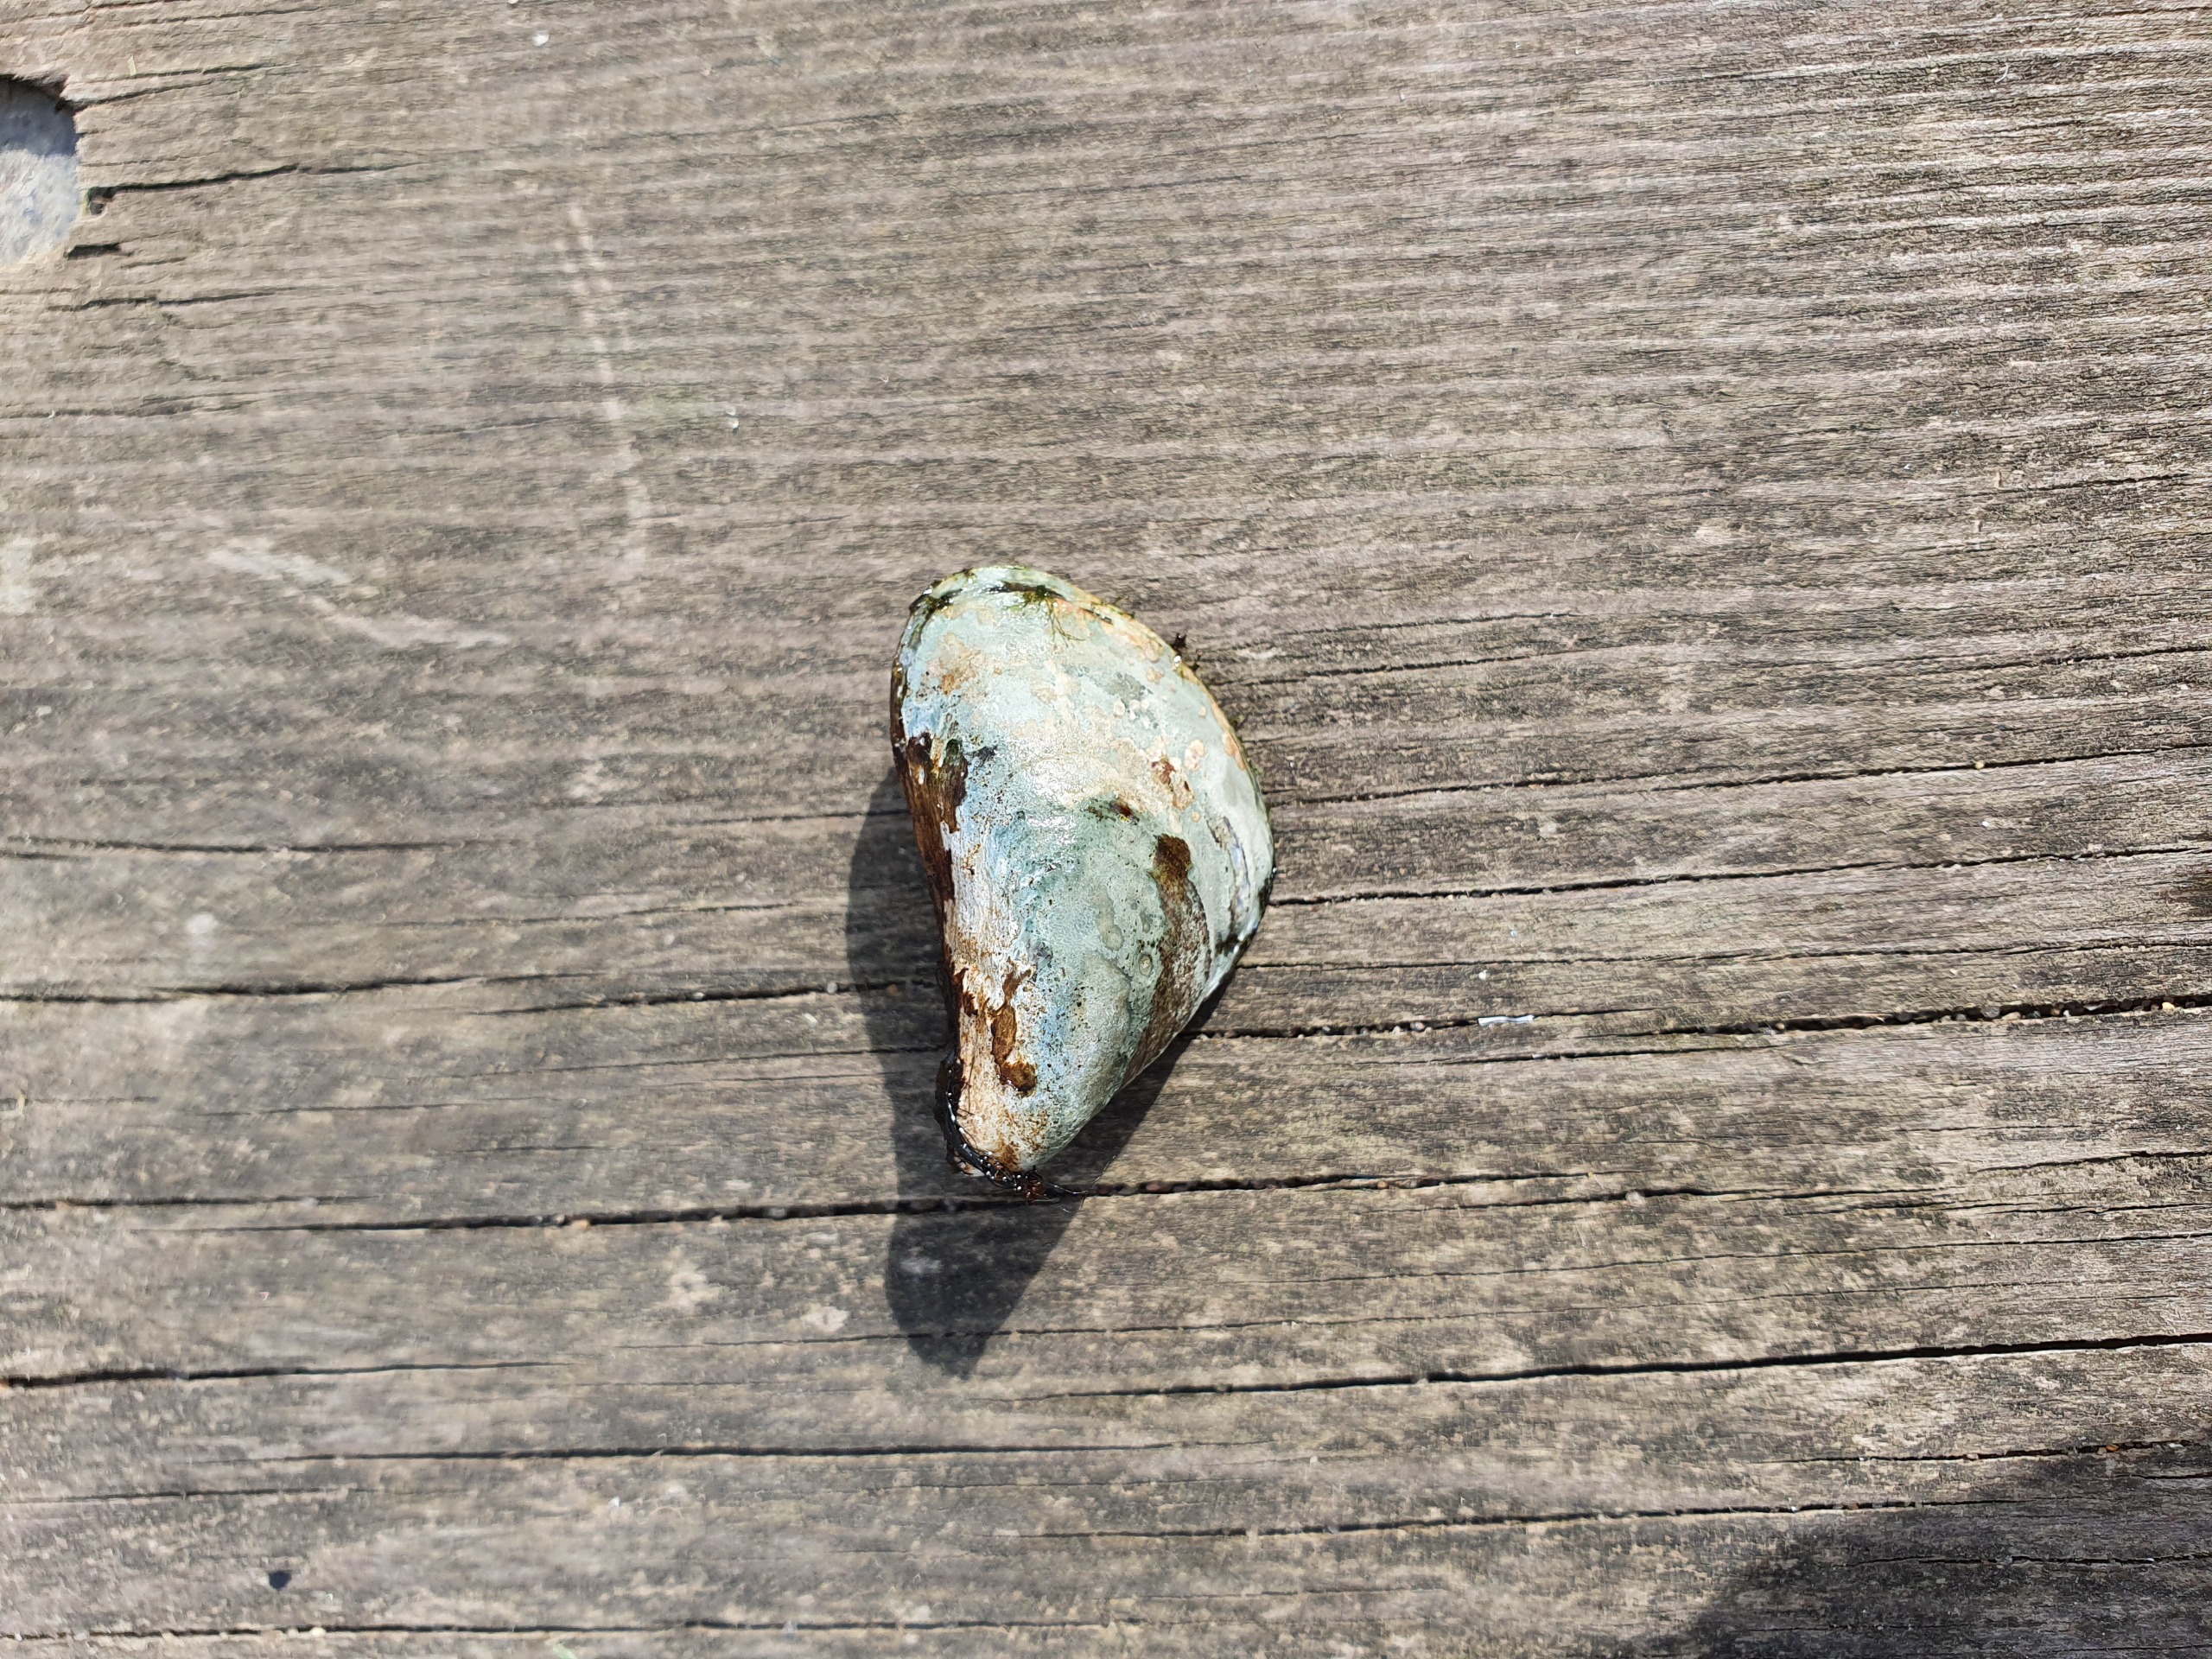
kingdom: Animalia
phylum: Mollusca
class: Bivalvia
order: Myida
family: Dreissenidae
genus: Dreissena
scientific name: Dreissena bugensis
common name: Quaggamusling
